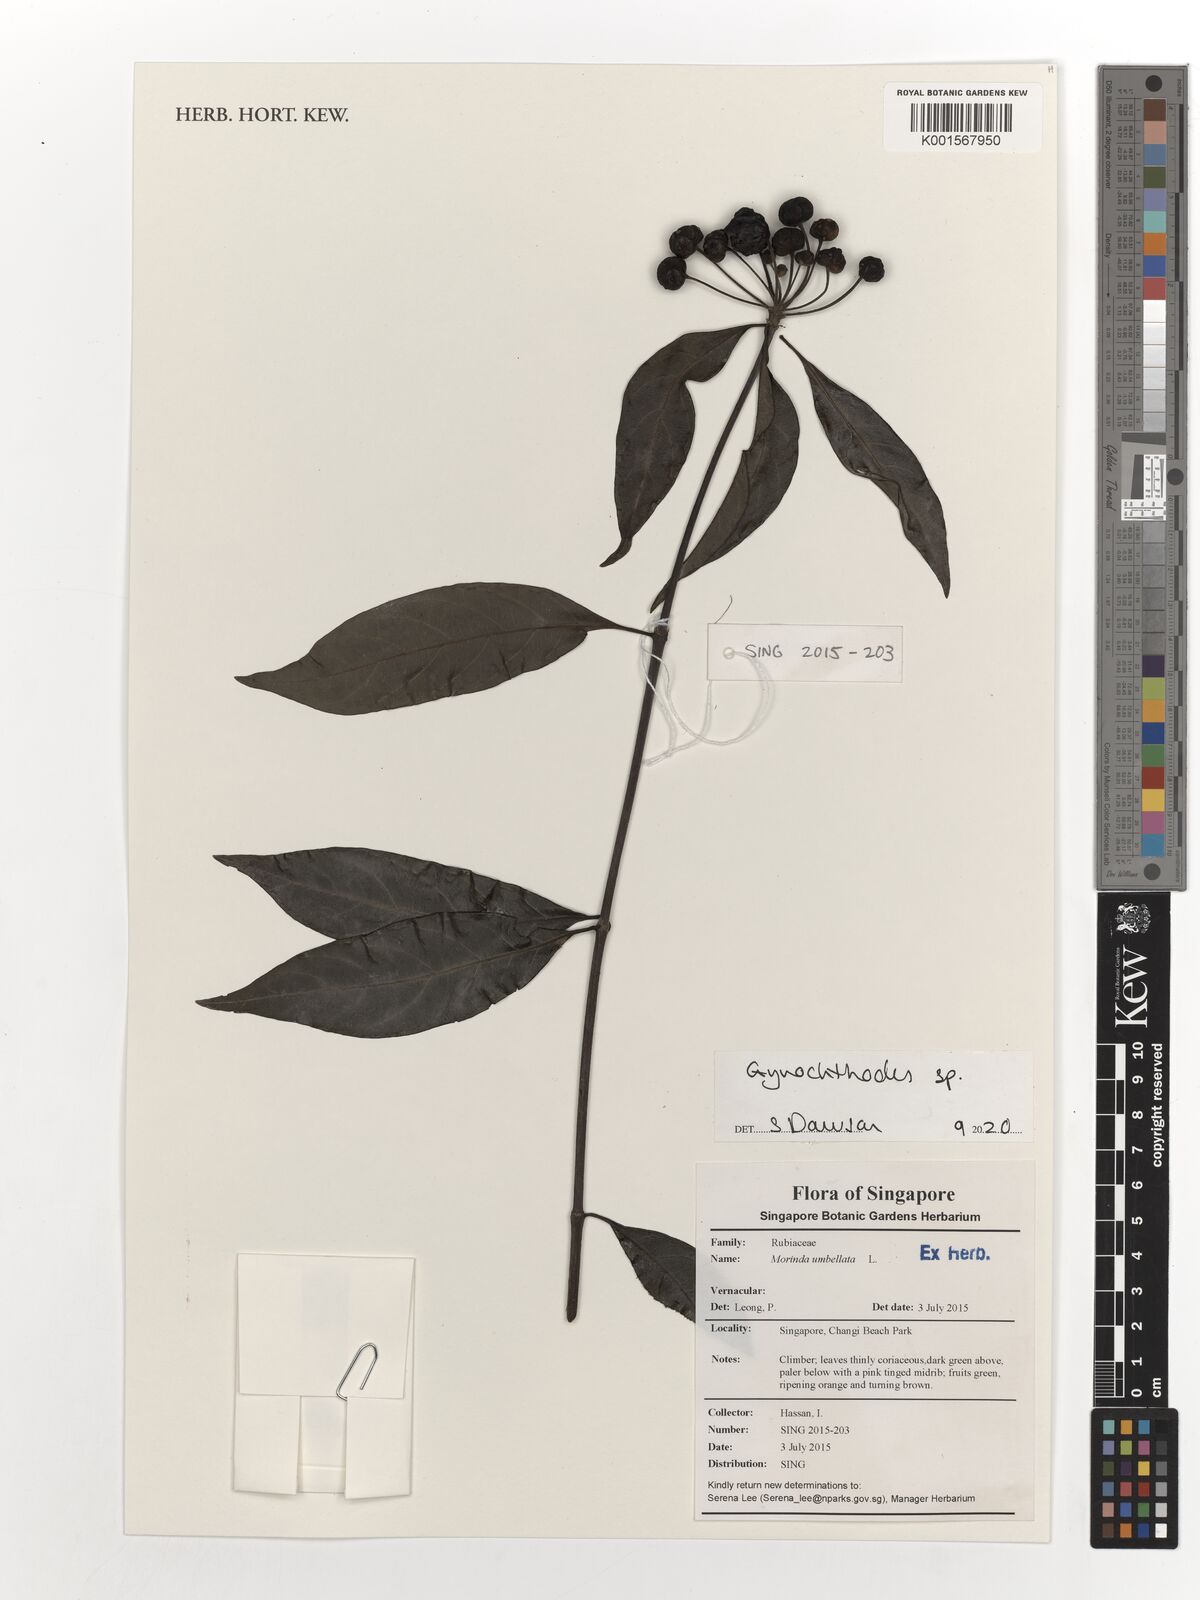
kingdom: Plantae
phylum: Tracheophyta
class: Magnoliopsida
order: Gentianales
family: Rubiaceae
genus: Gynochthodes
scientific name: Gynochthodes
